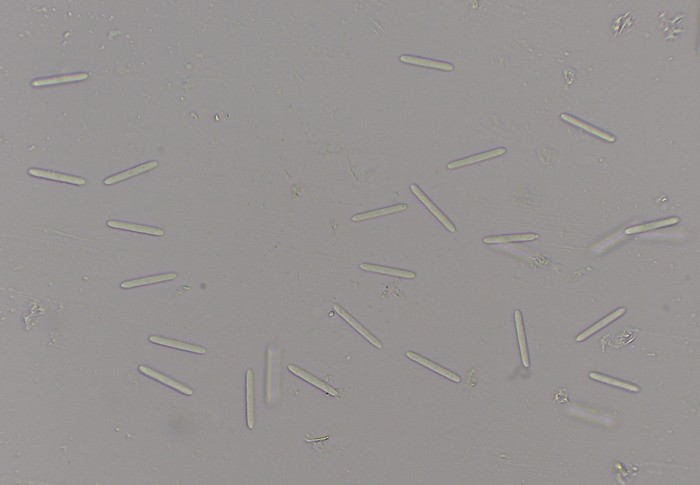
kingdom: Fungi
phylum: Ascomycota
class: Sordariomycetes
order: Hypocreales
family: Cylindriaceae
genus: Cylindrium
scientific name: Cylindrium aeruginosum
